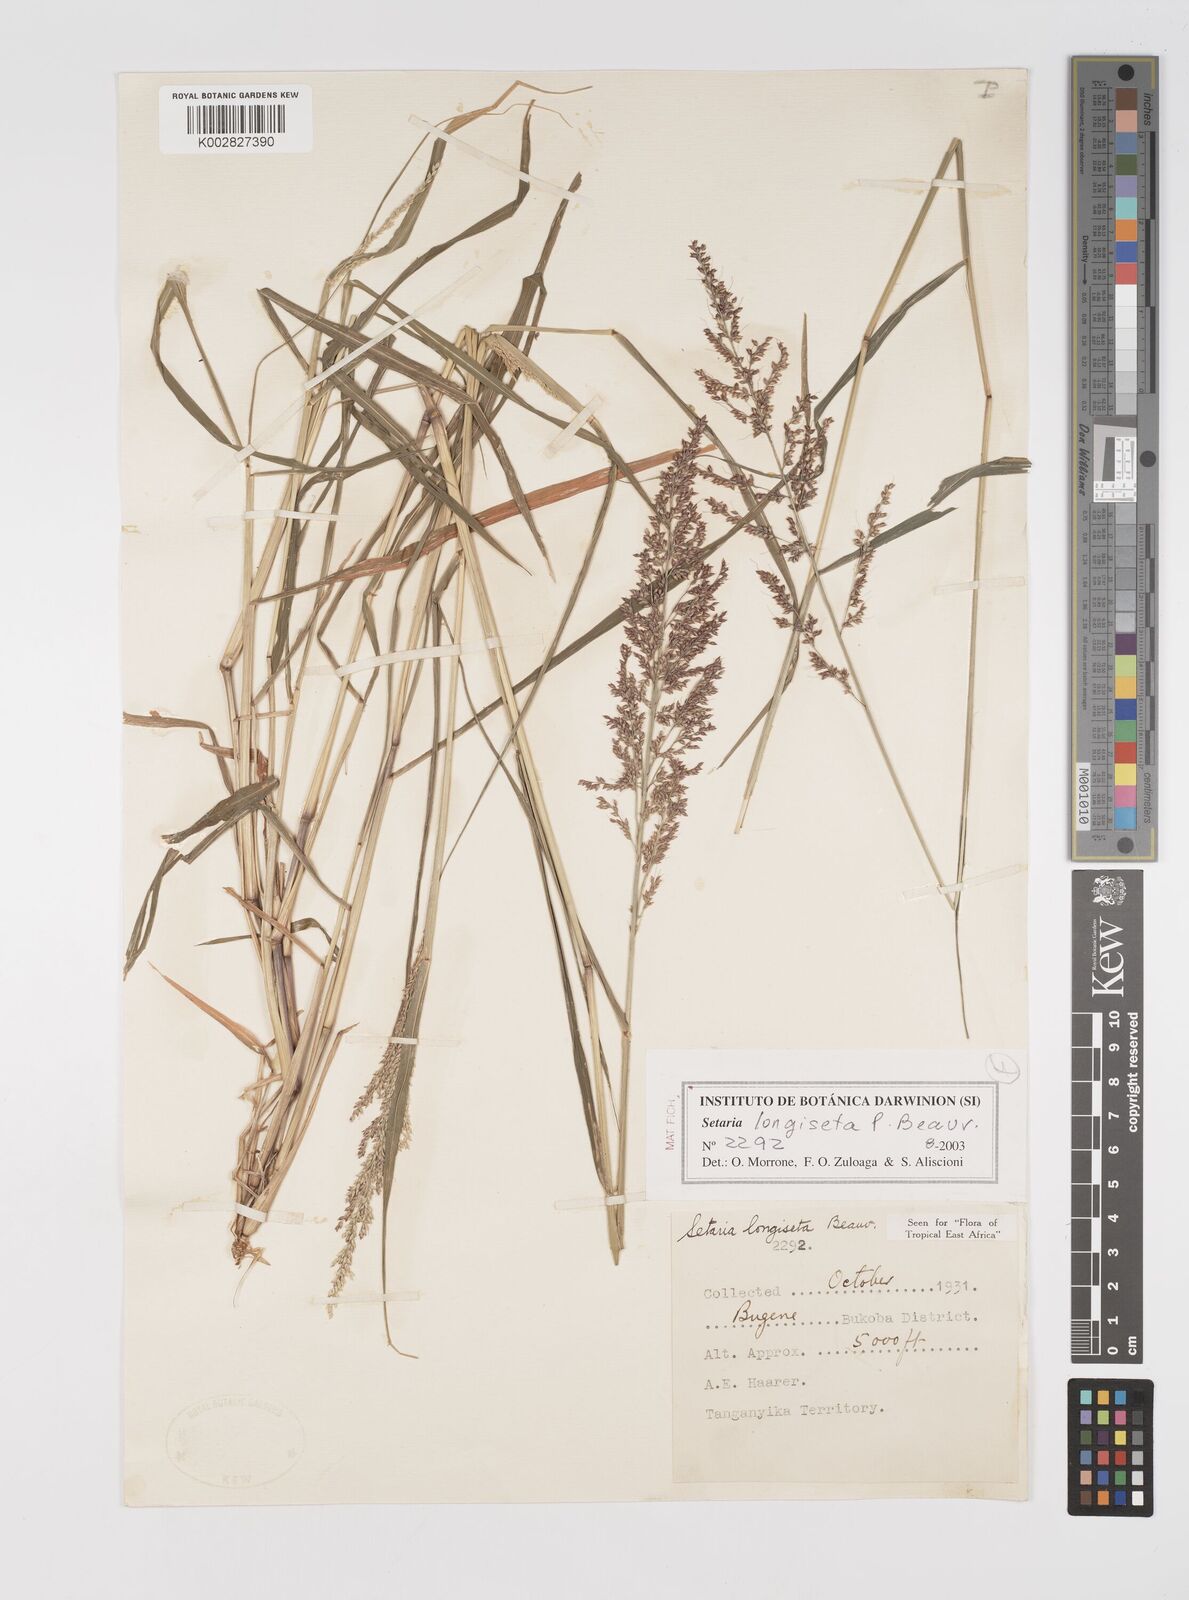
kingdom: Plantae
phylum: Tracheophyta
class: Liliopsida
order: Poales
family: Poaceae
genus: Setaria
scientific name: Setaria longiseta
